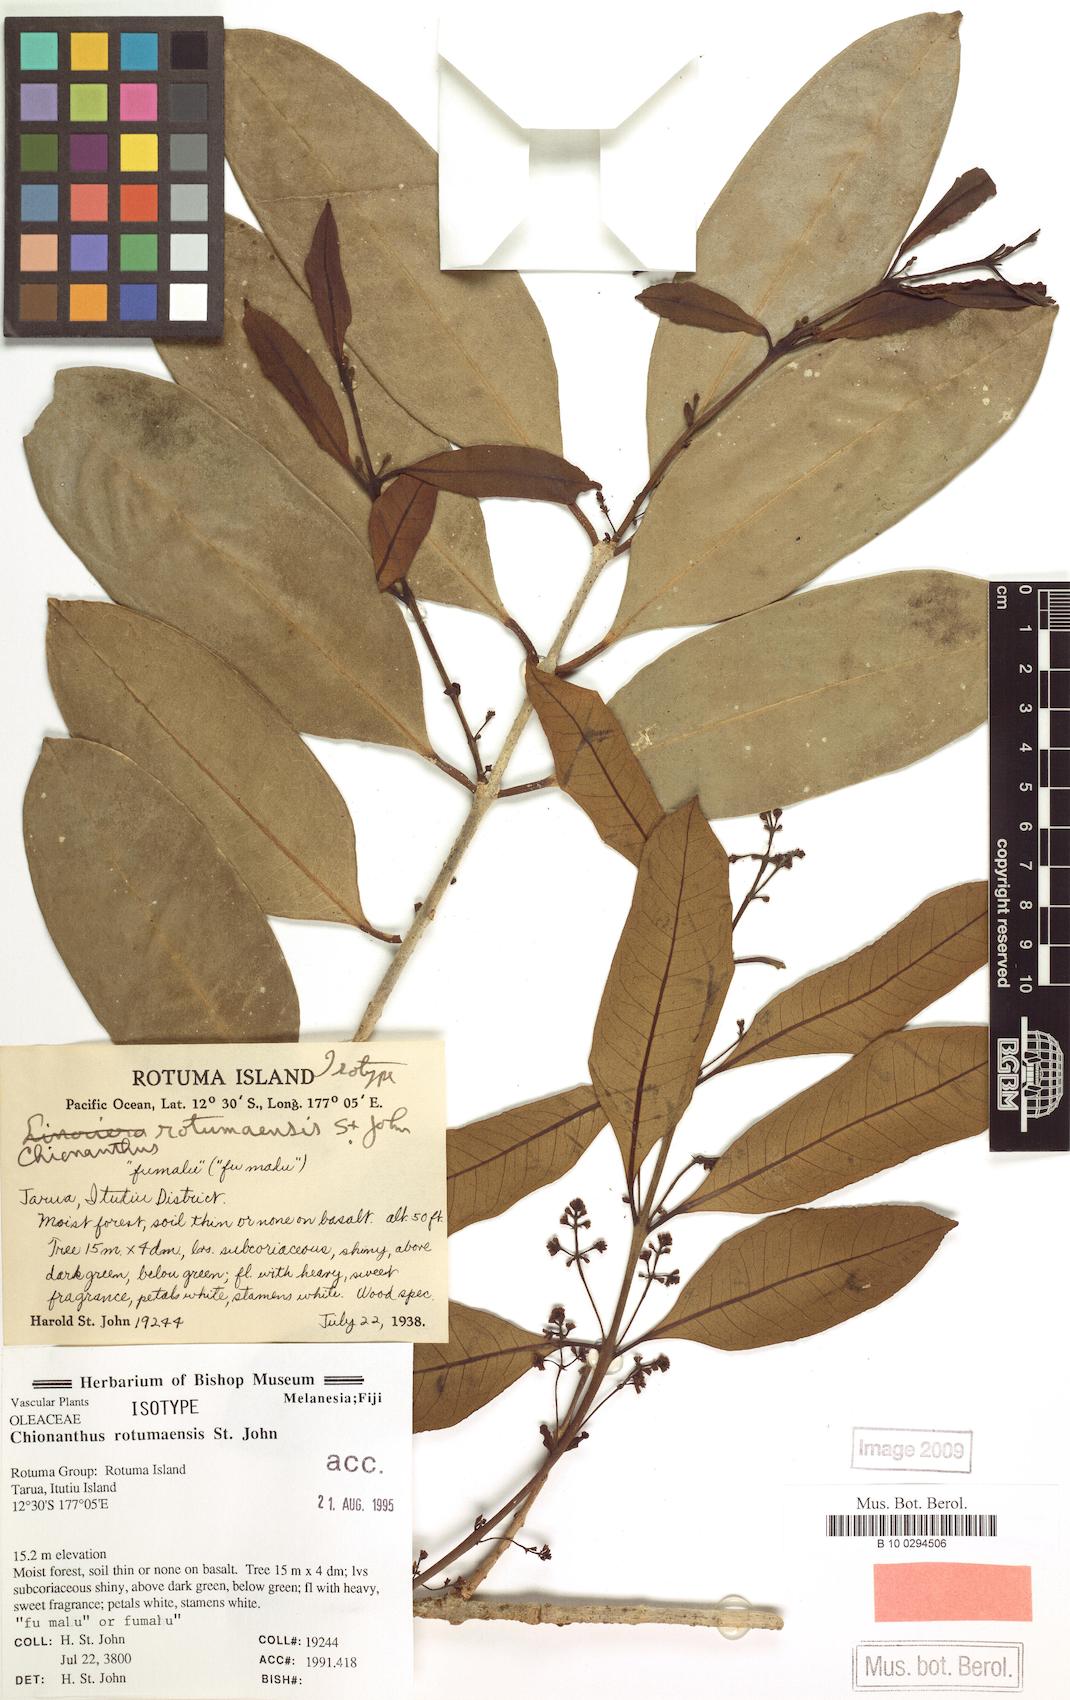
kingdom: Plantae
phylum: Tracheophyta
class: Magnoliopsida
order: Lamiales
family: Oleaceae
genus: Chionanthus
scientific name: Chionanthus
